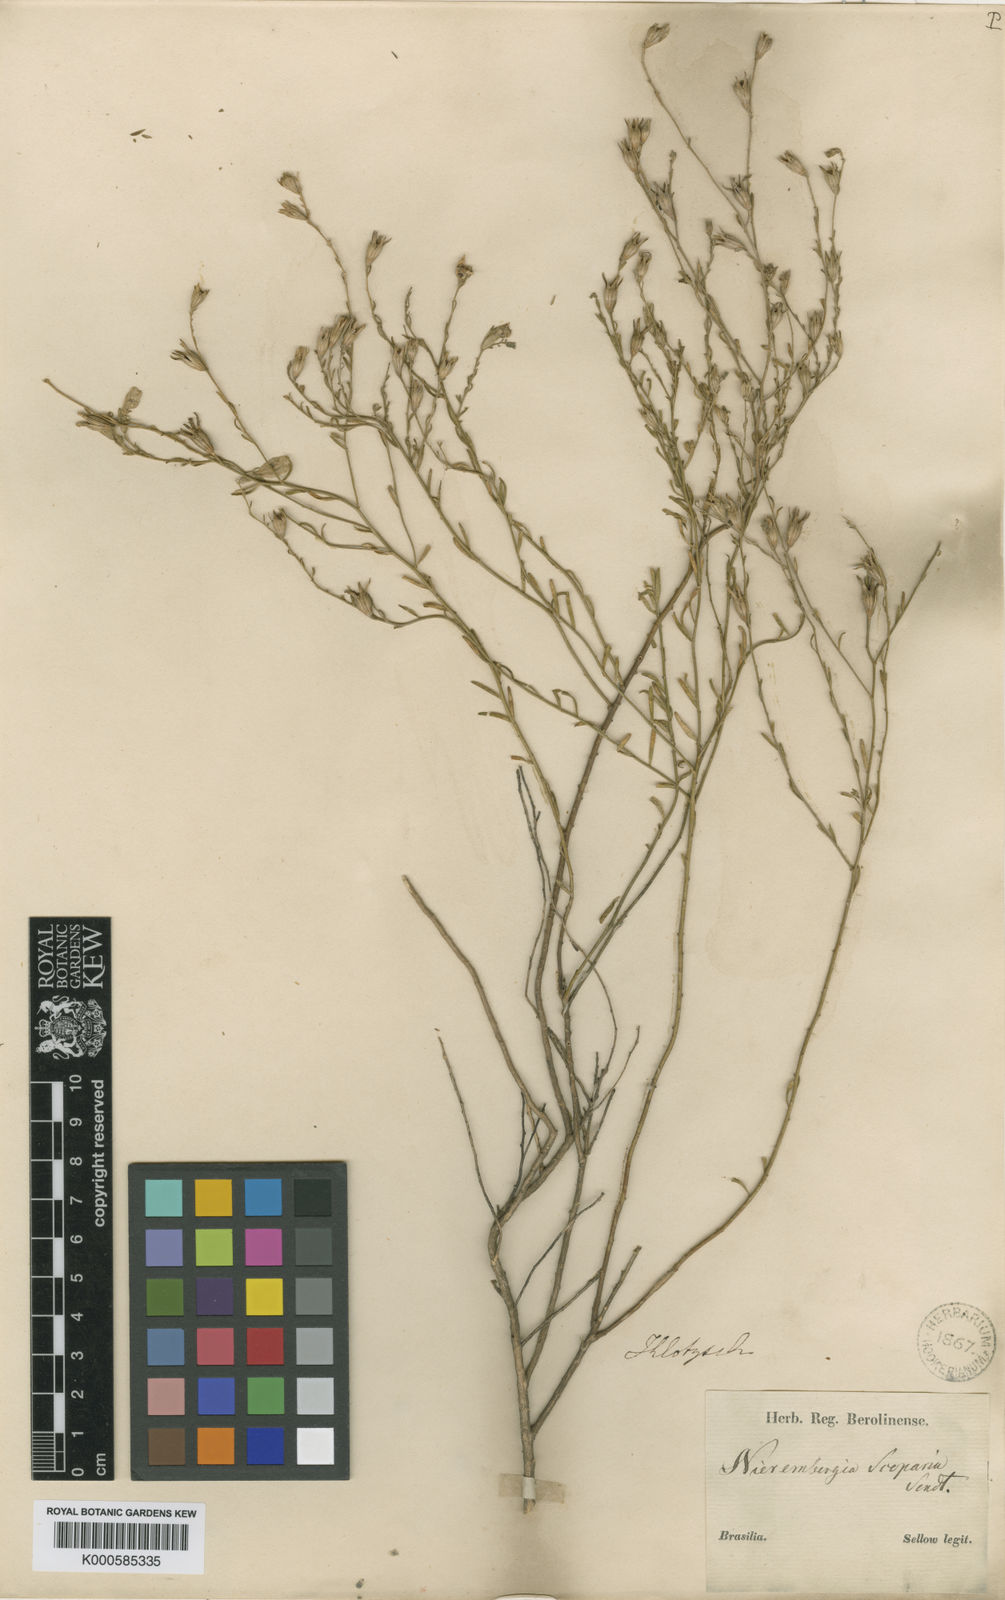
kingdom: Plantae
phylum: Tracheophyta
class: Magnoliopsida
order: Solanales
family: Solanaceae
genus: Nierembergia
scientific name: Nierembergia scoparia
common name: Broom cupflower
